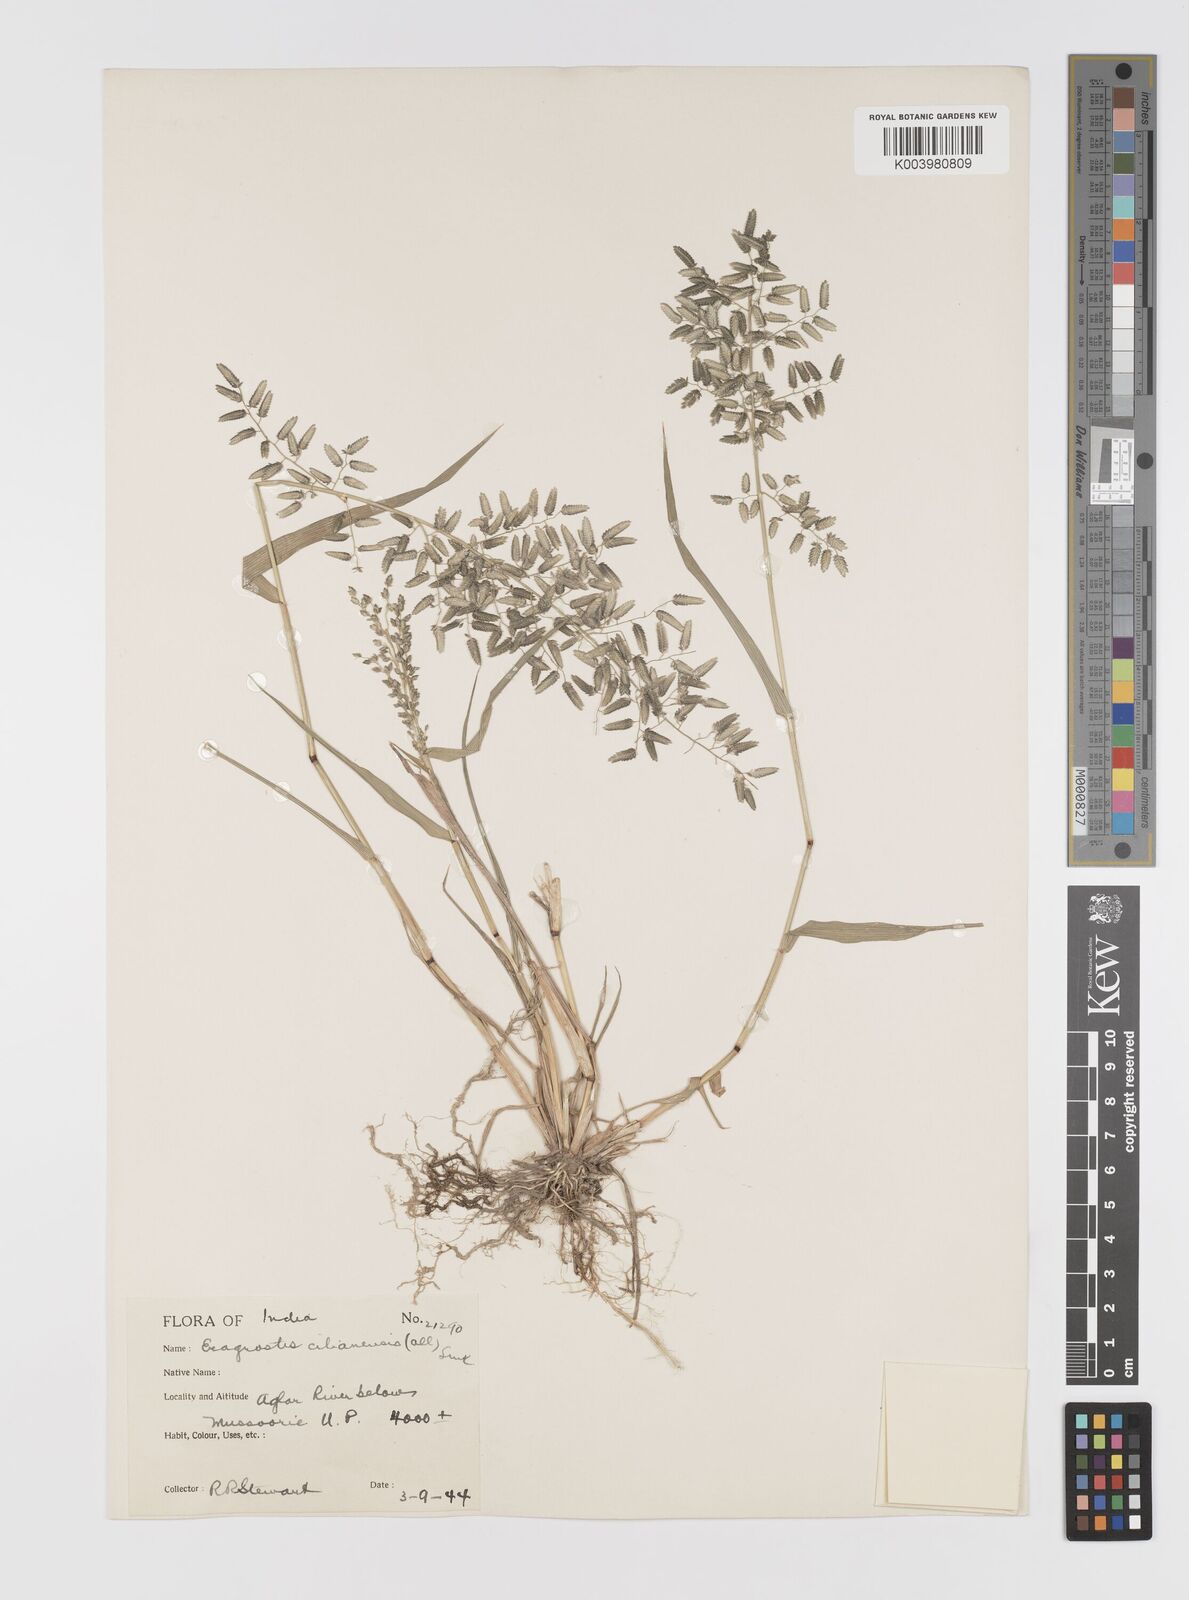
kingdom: Plantae
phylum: Tracheophyta
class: Liliopsida
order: Poales
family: Poaceae
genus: Eragrostis
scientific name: Eragrostis cilianensis
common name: Stinkgrass
